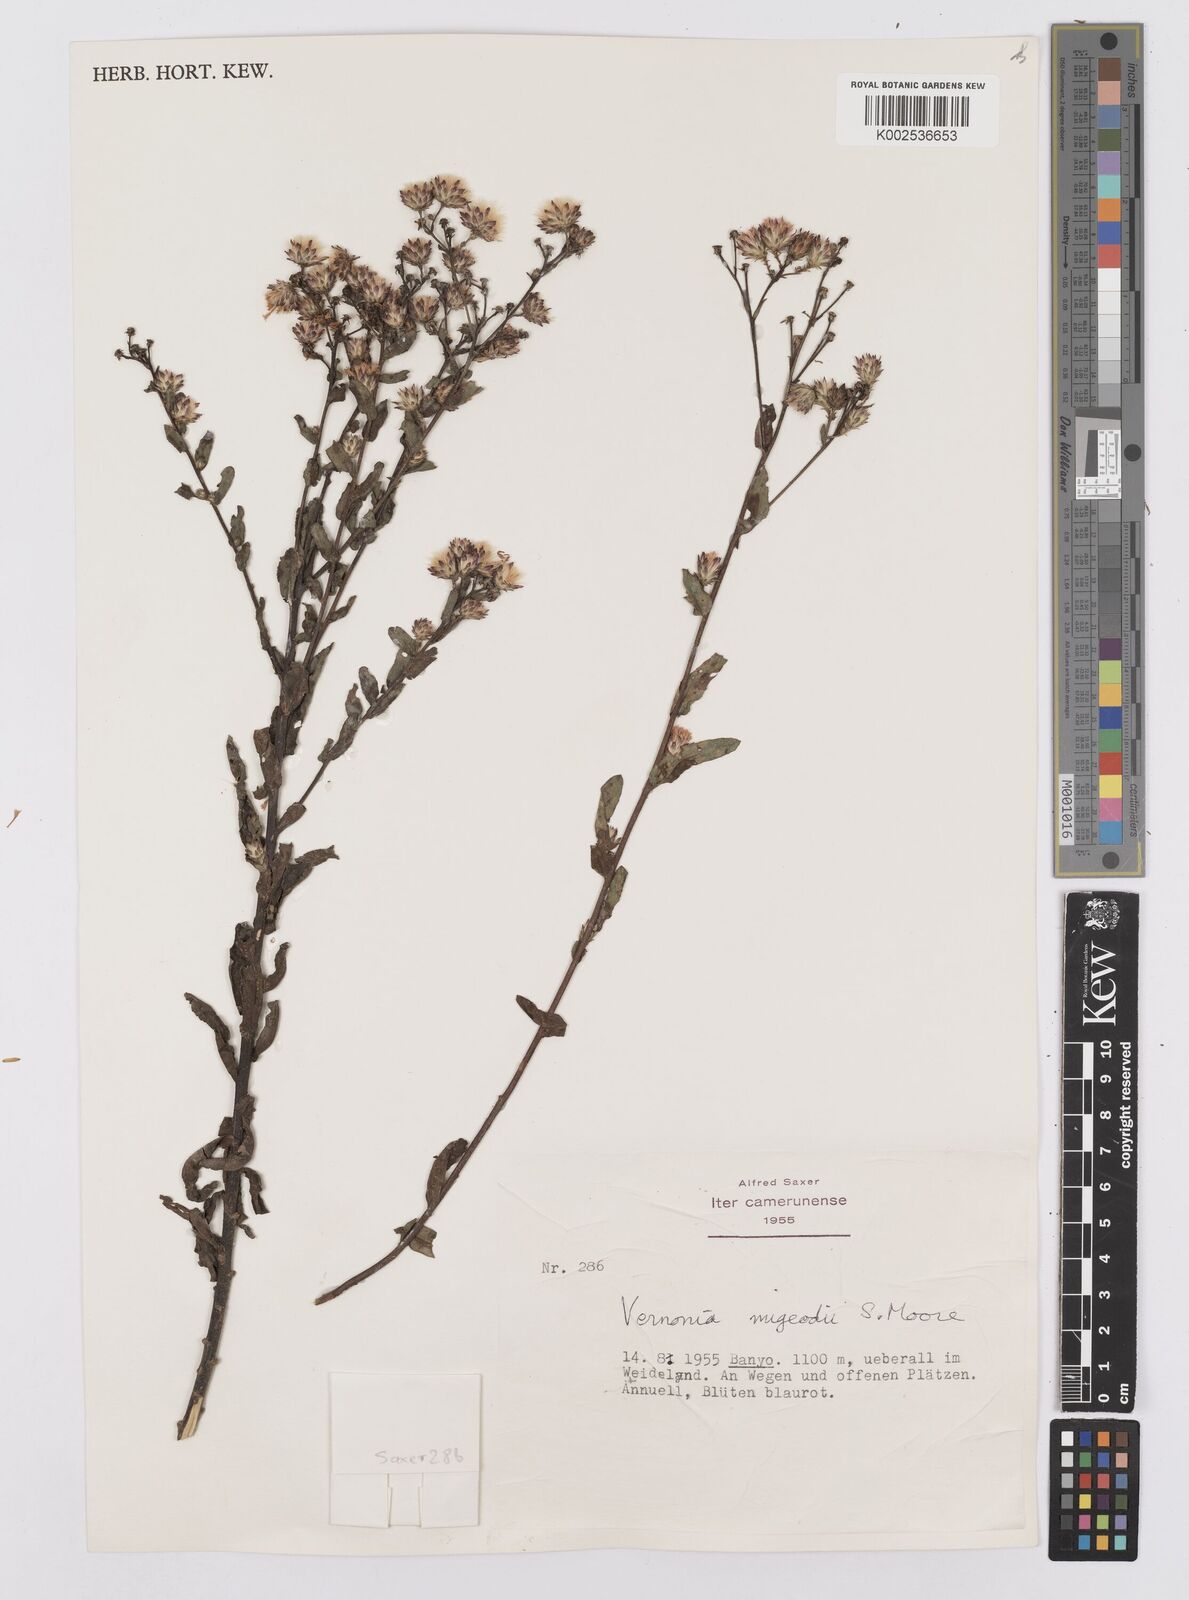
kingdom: Plantae
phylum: Tracheophyta
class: Magnoliopsida
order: Asterales
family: Asteraceae
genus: Vernoniastrum
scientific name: Vernoniastrum migeodii
